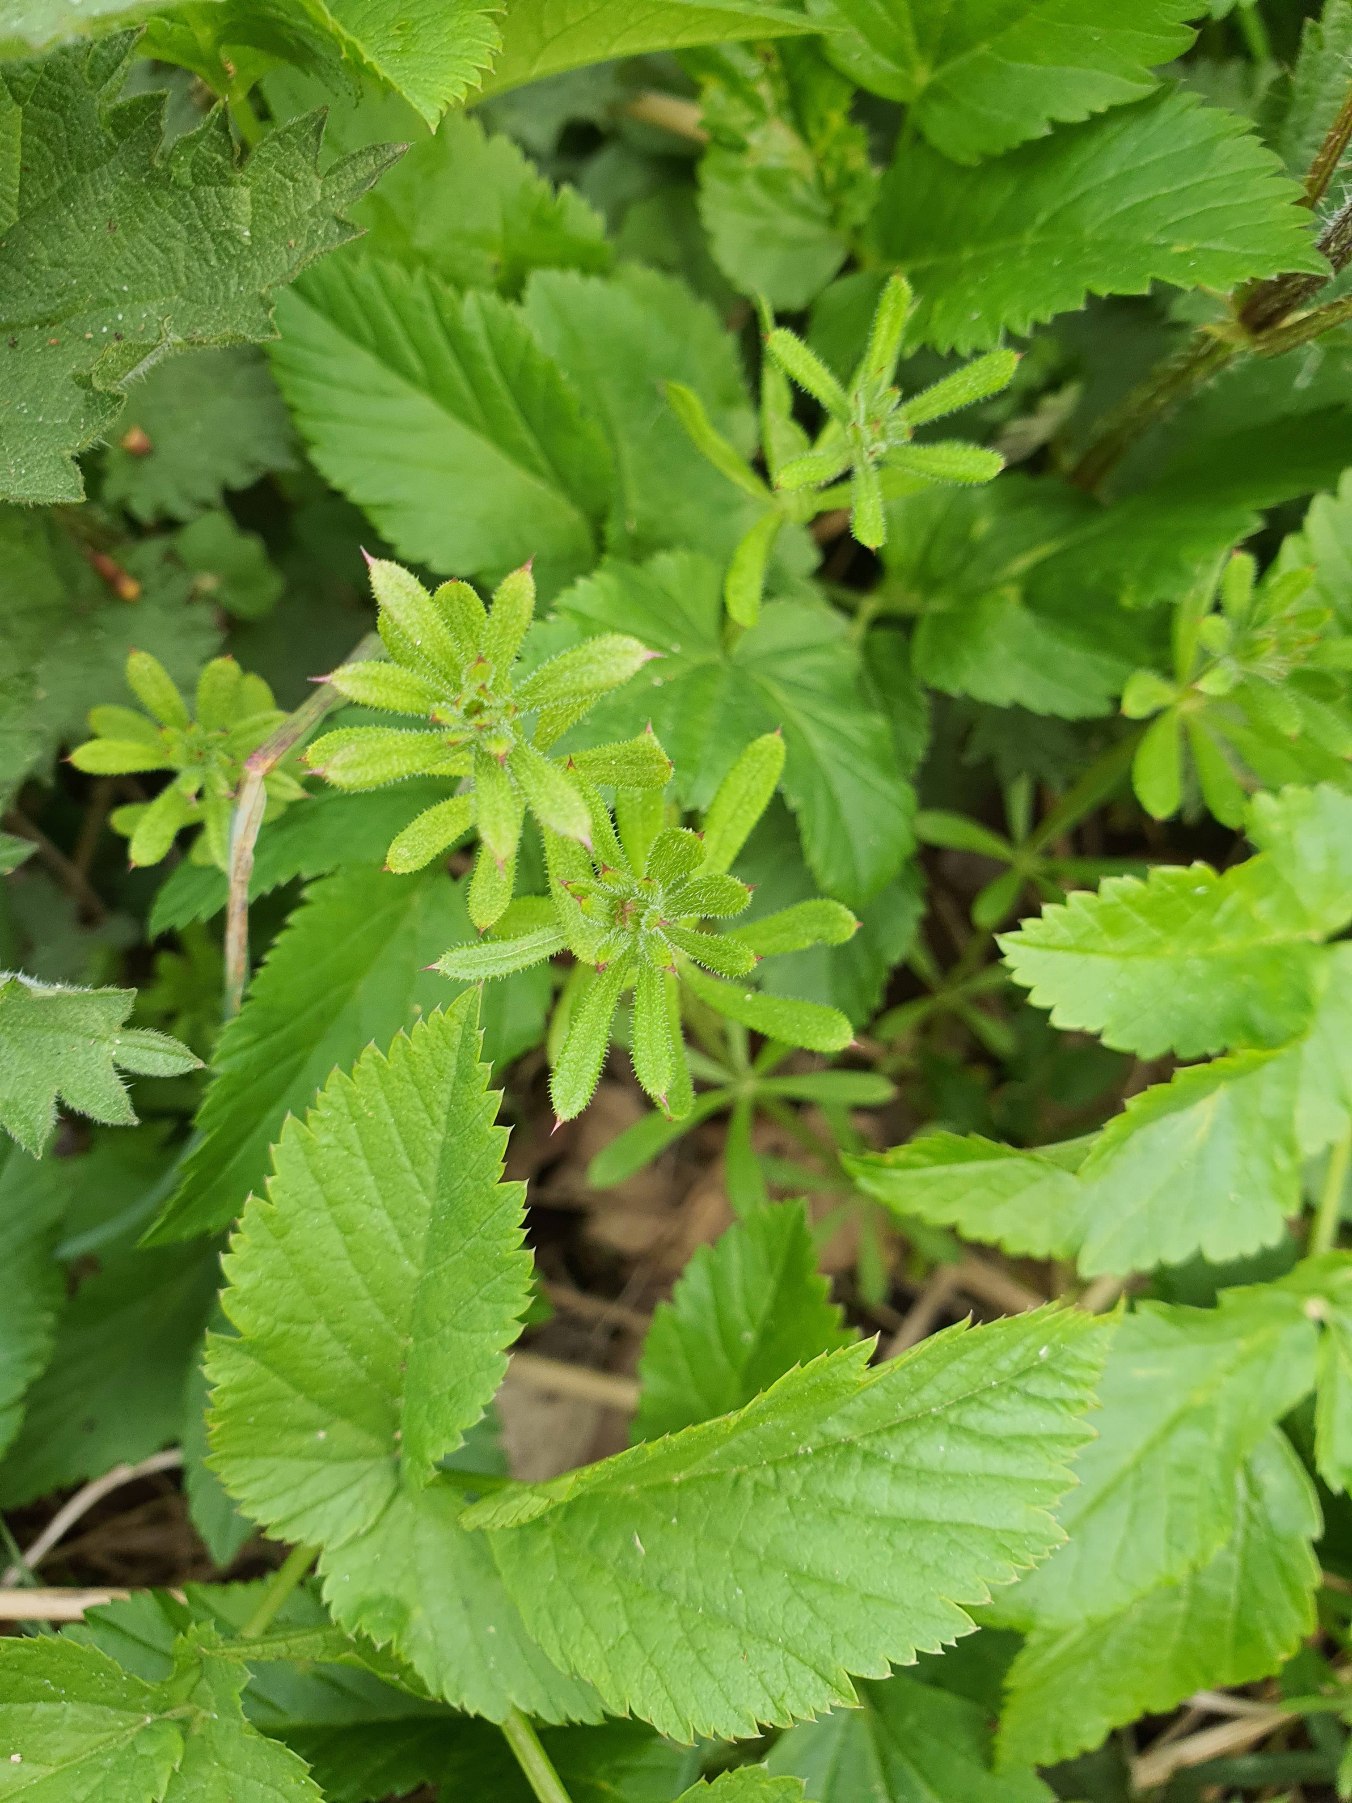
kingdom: Plantae
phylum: Tracheophyta
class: Magnoliopsida
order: Gentianales
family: Rubiaceae
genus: Galium
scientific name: Galium aparine
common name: Burre-snerre
